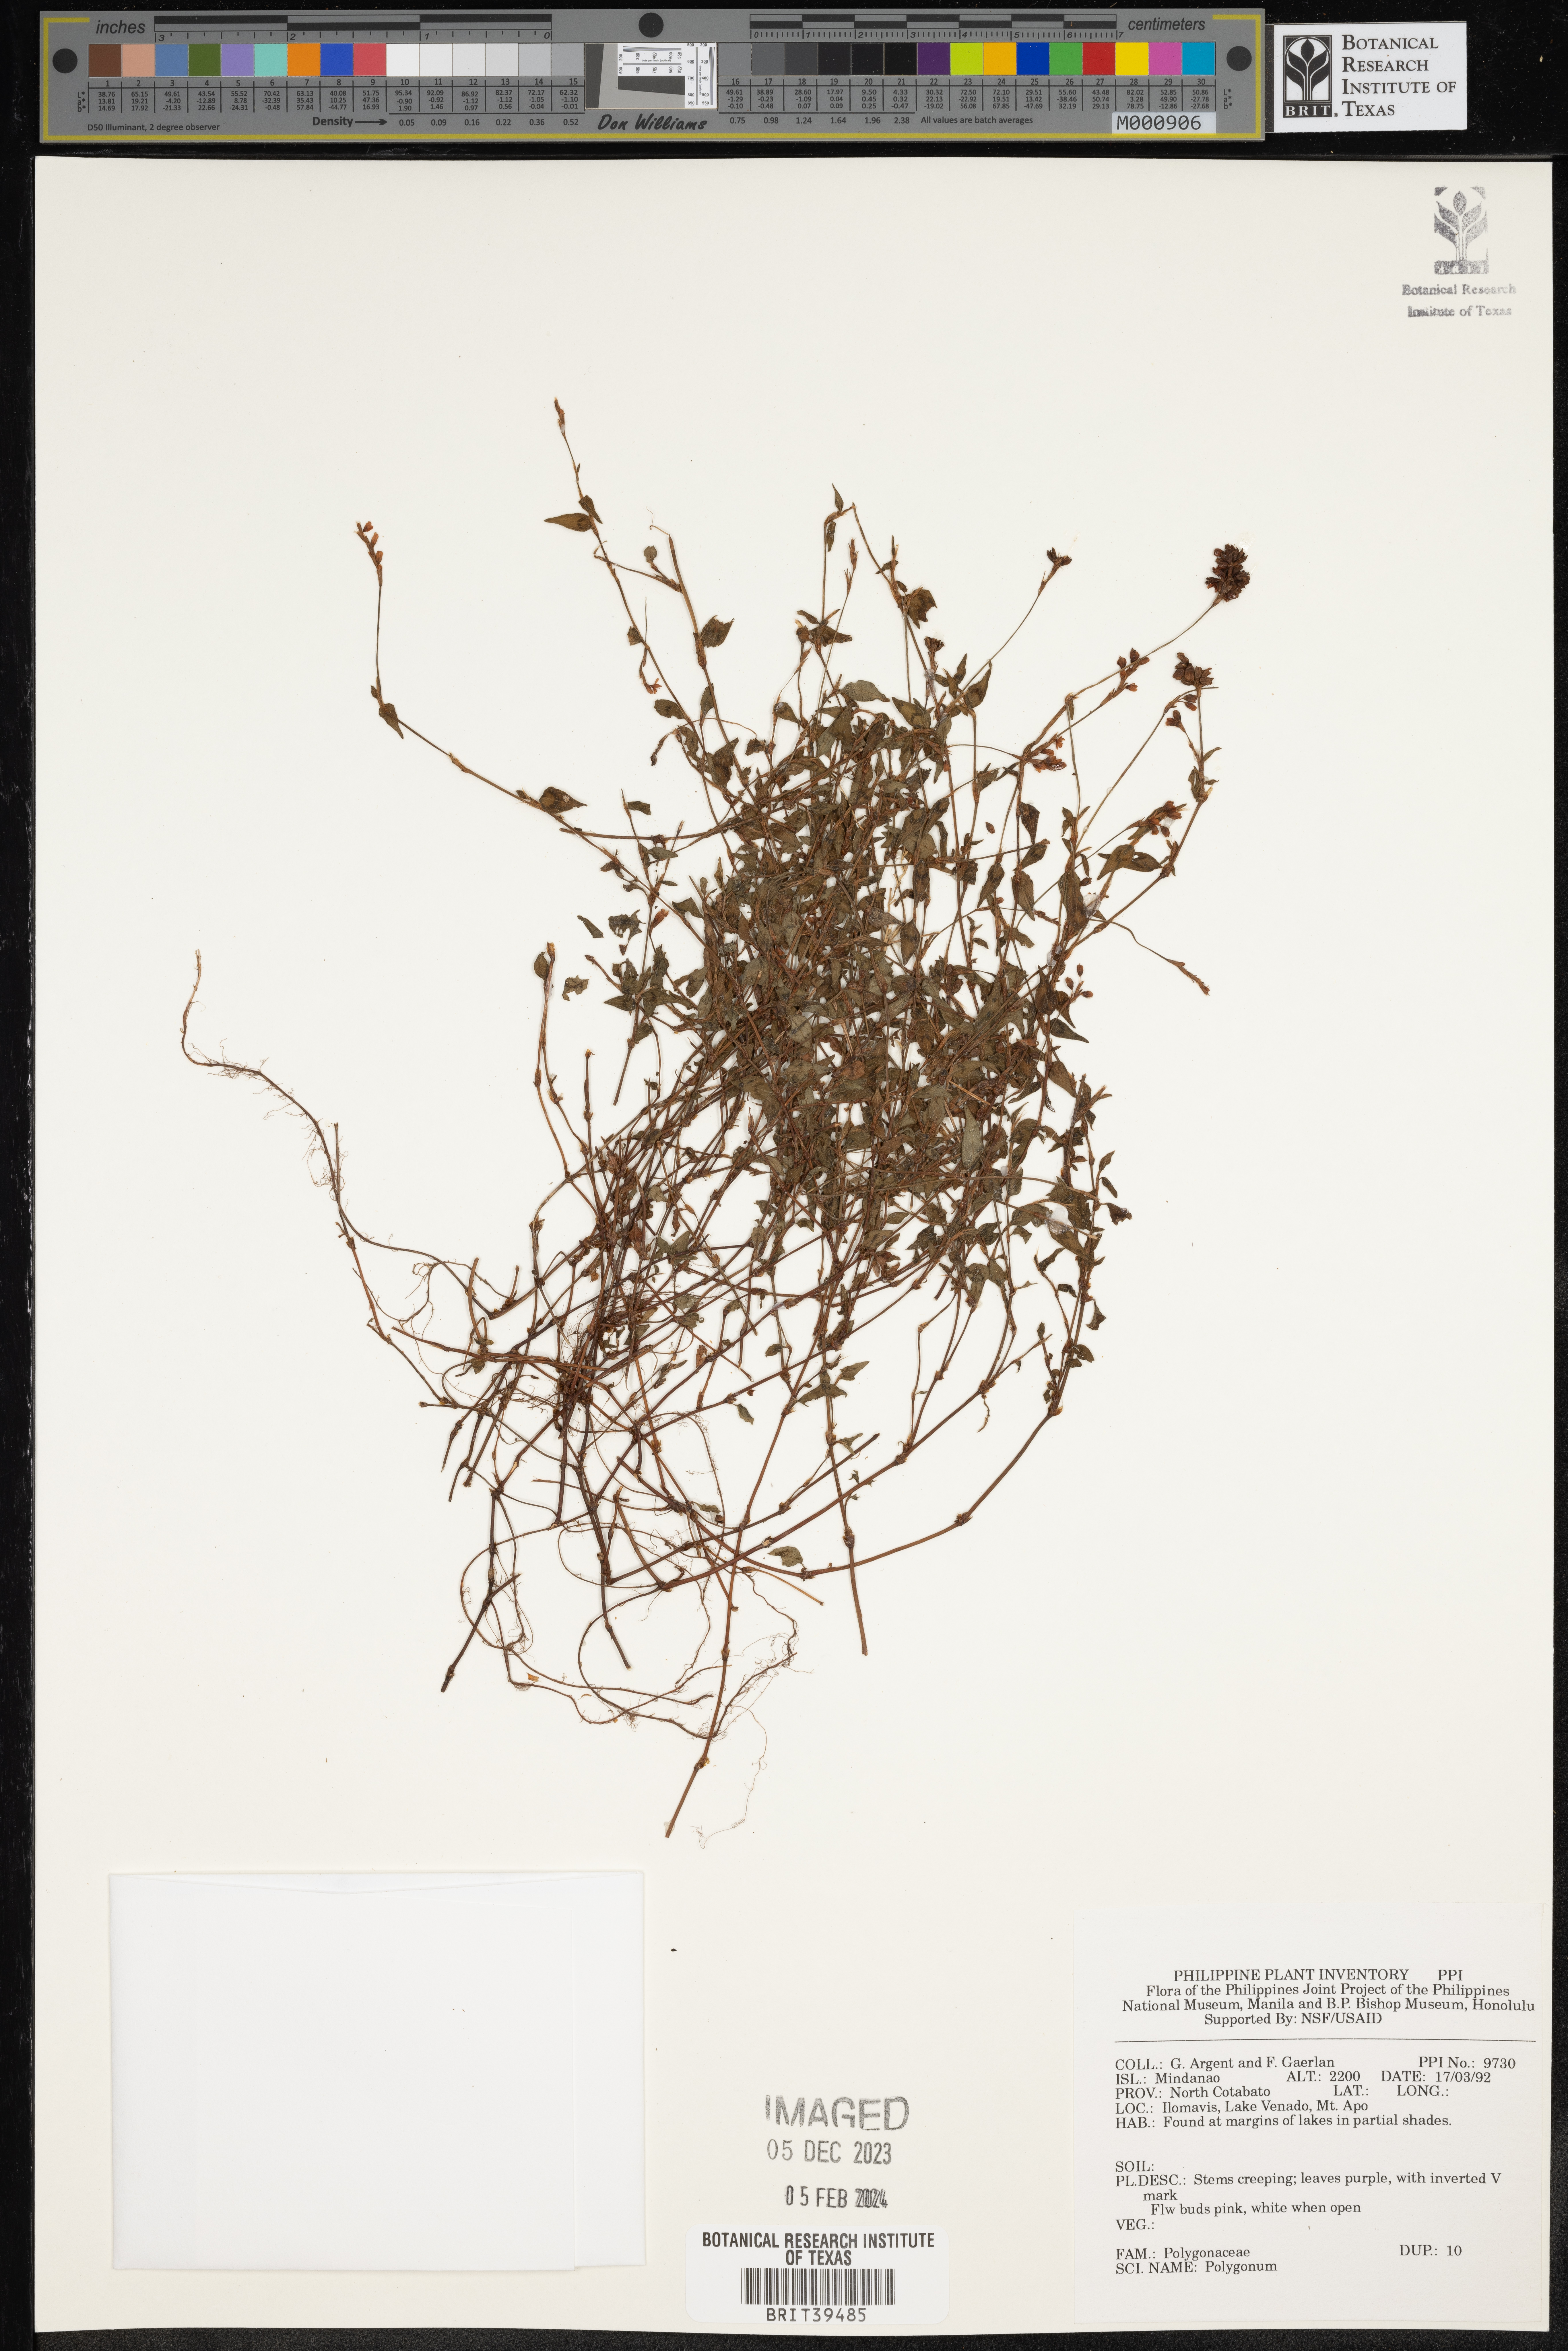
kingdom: Plantae
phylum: Tracheophyta
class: Magnoliopsida
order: Caryophyllales
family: Polygonaceae
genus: Polygonum
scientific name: Polygonum
